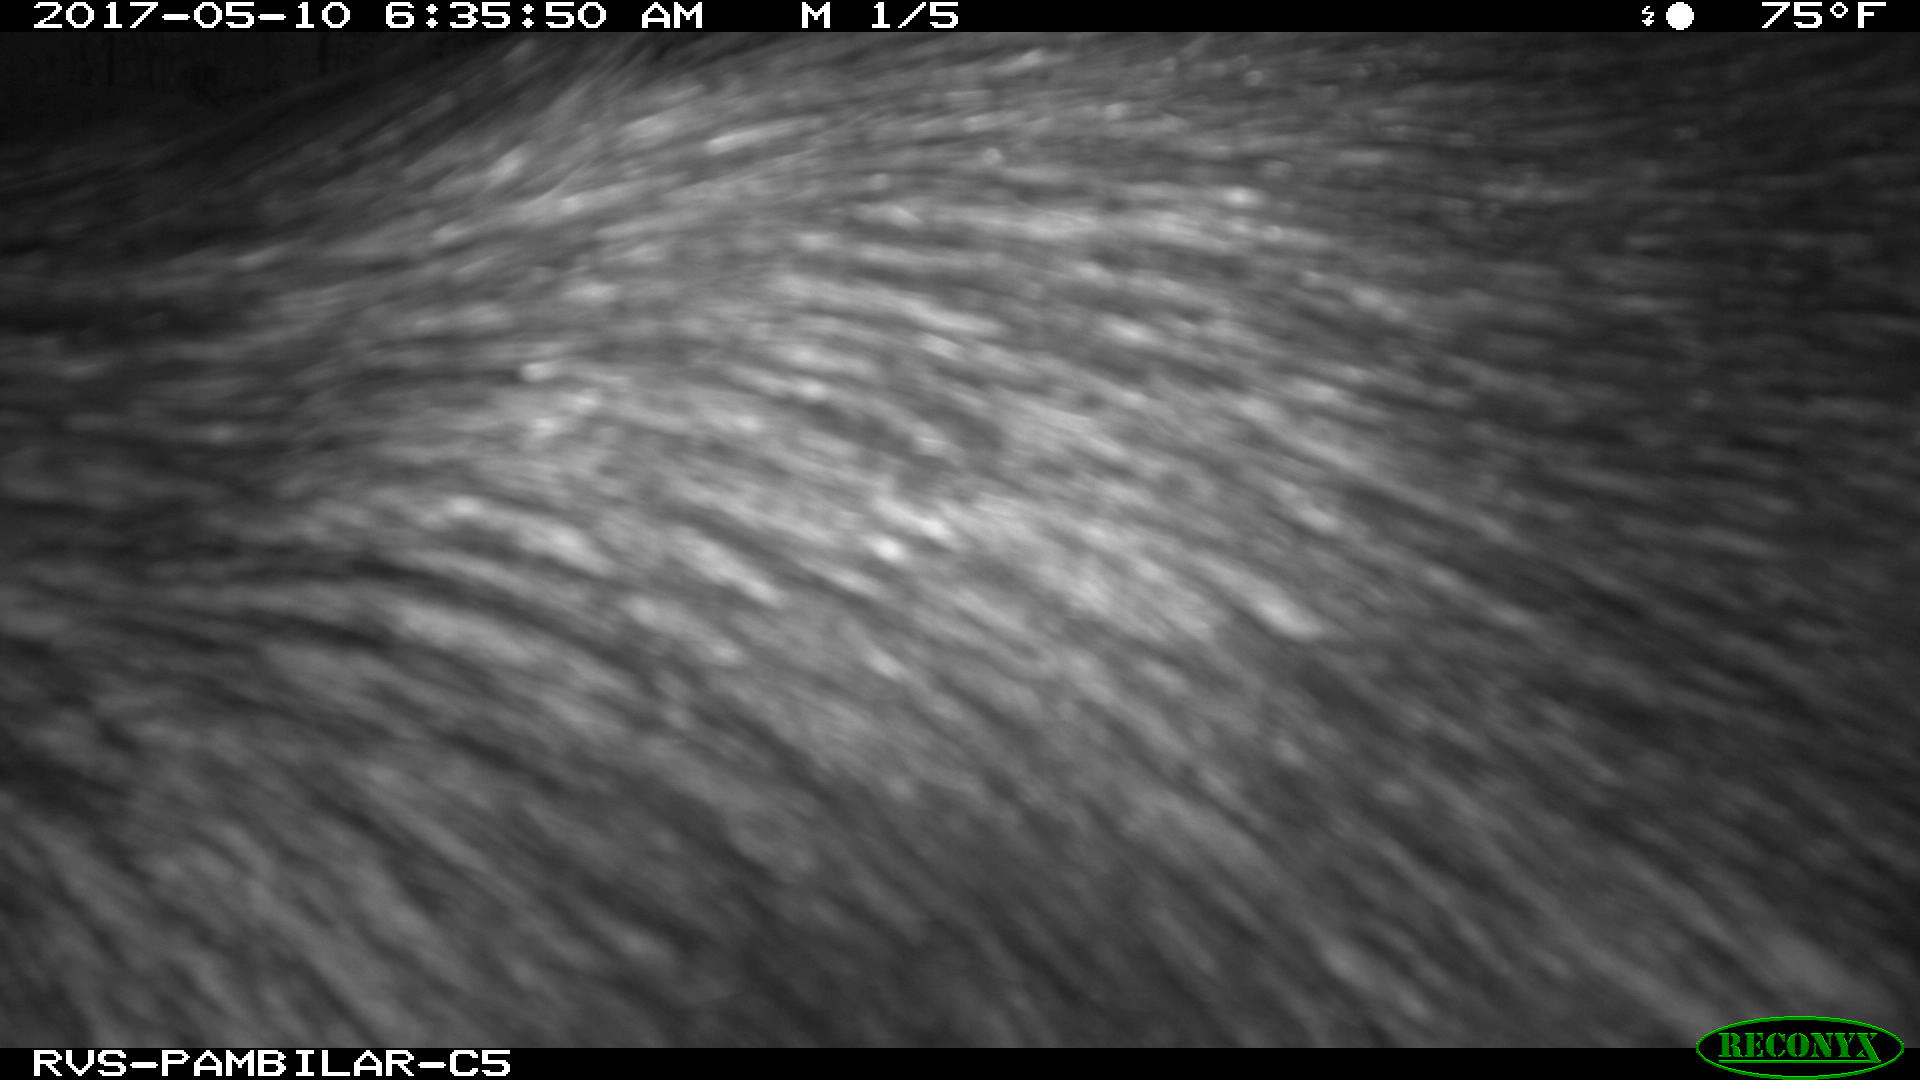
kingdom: Animalia
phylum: Chordata
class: Mammalia
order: Artiodactyla
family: Tayassuidae
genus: Tayassu
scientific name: Tayassu pecari
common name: White-lipped peccary
